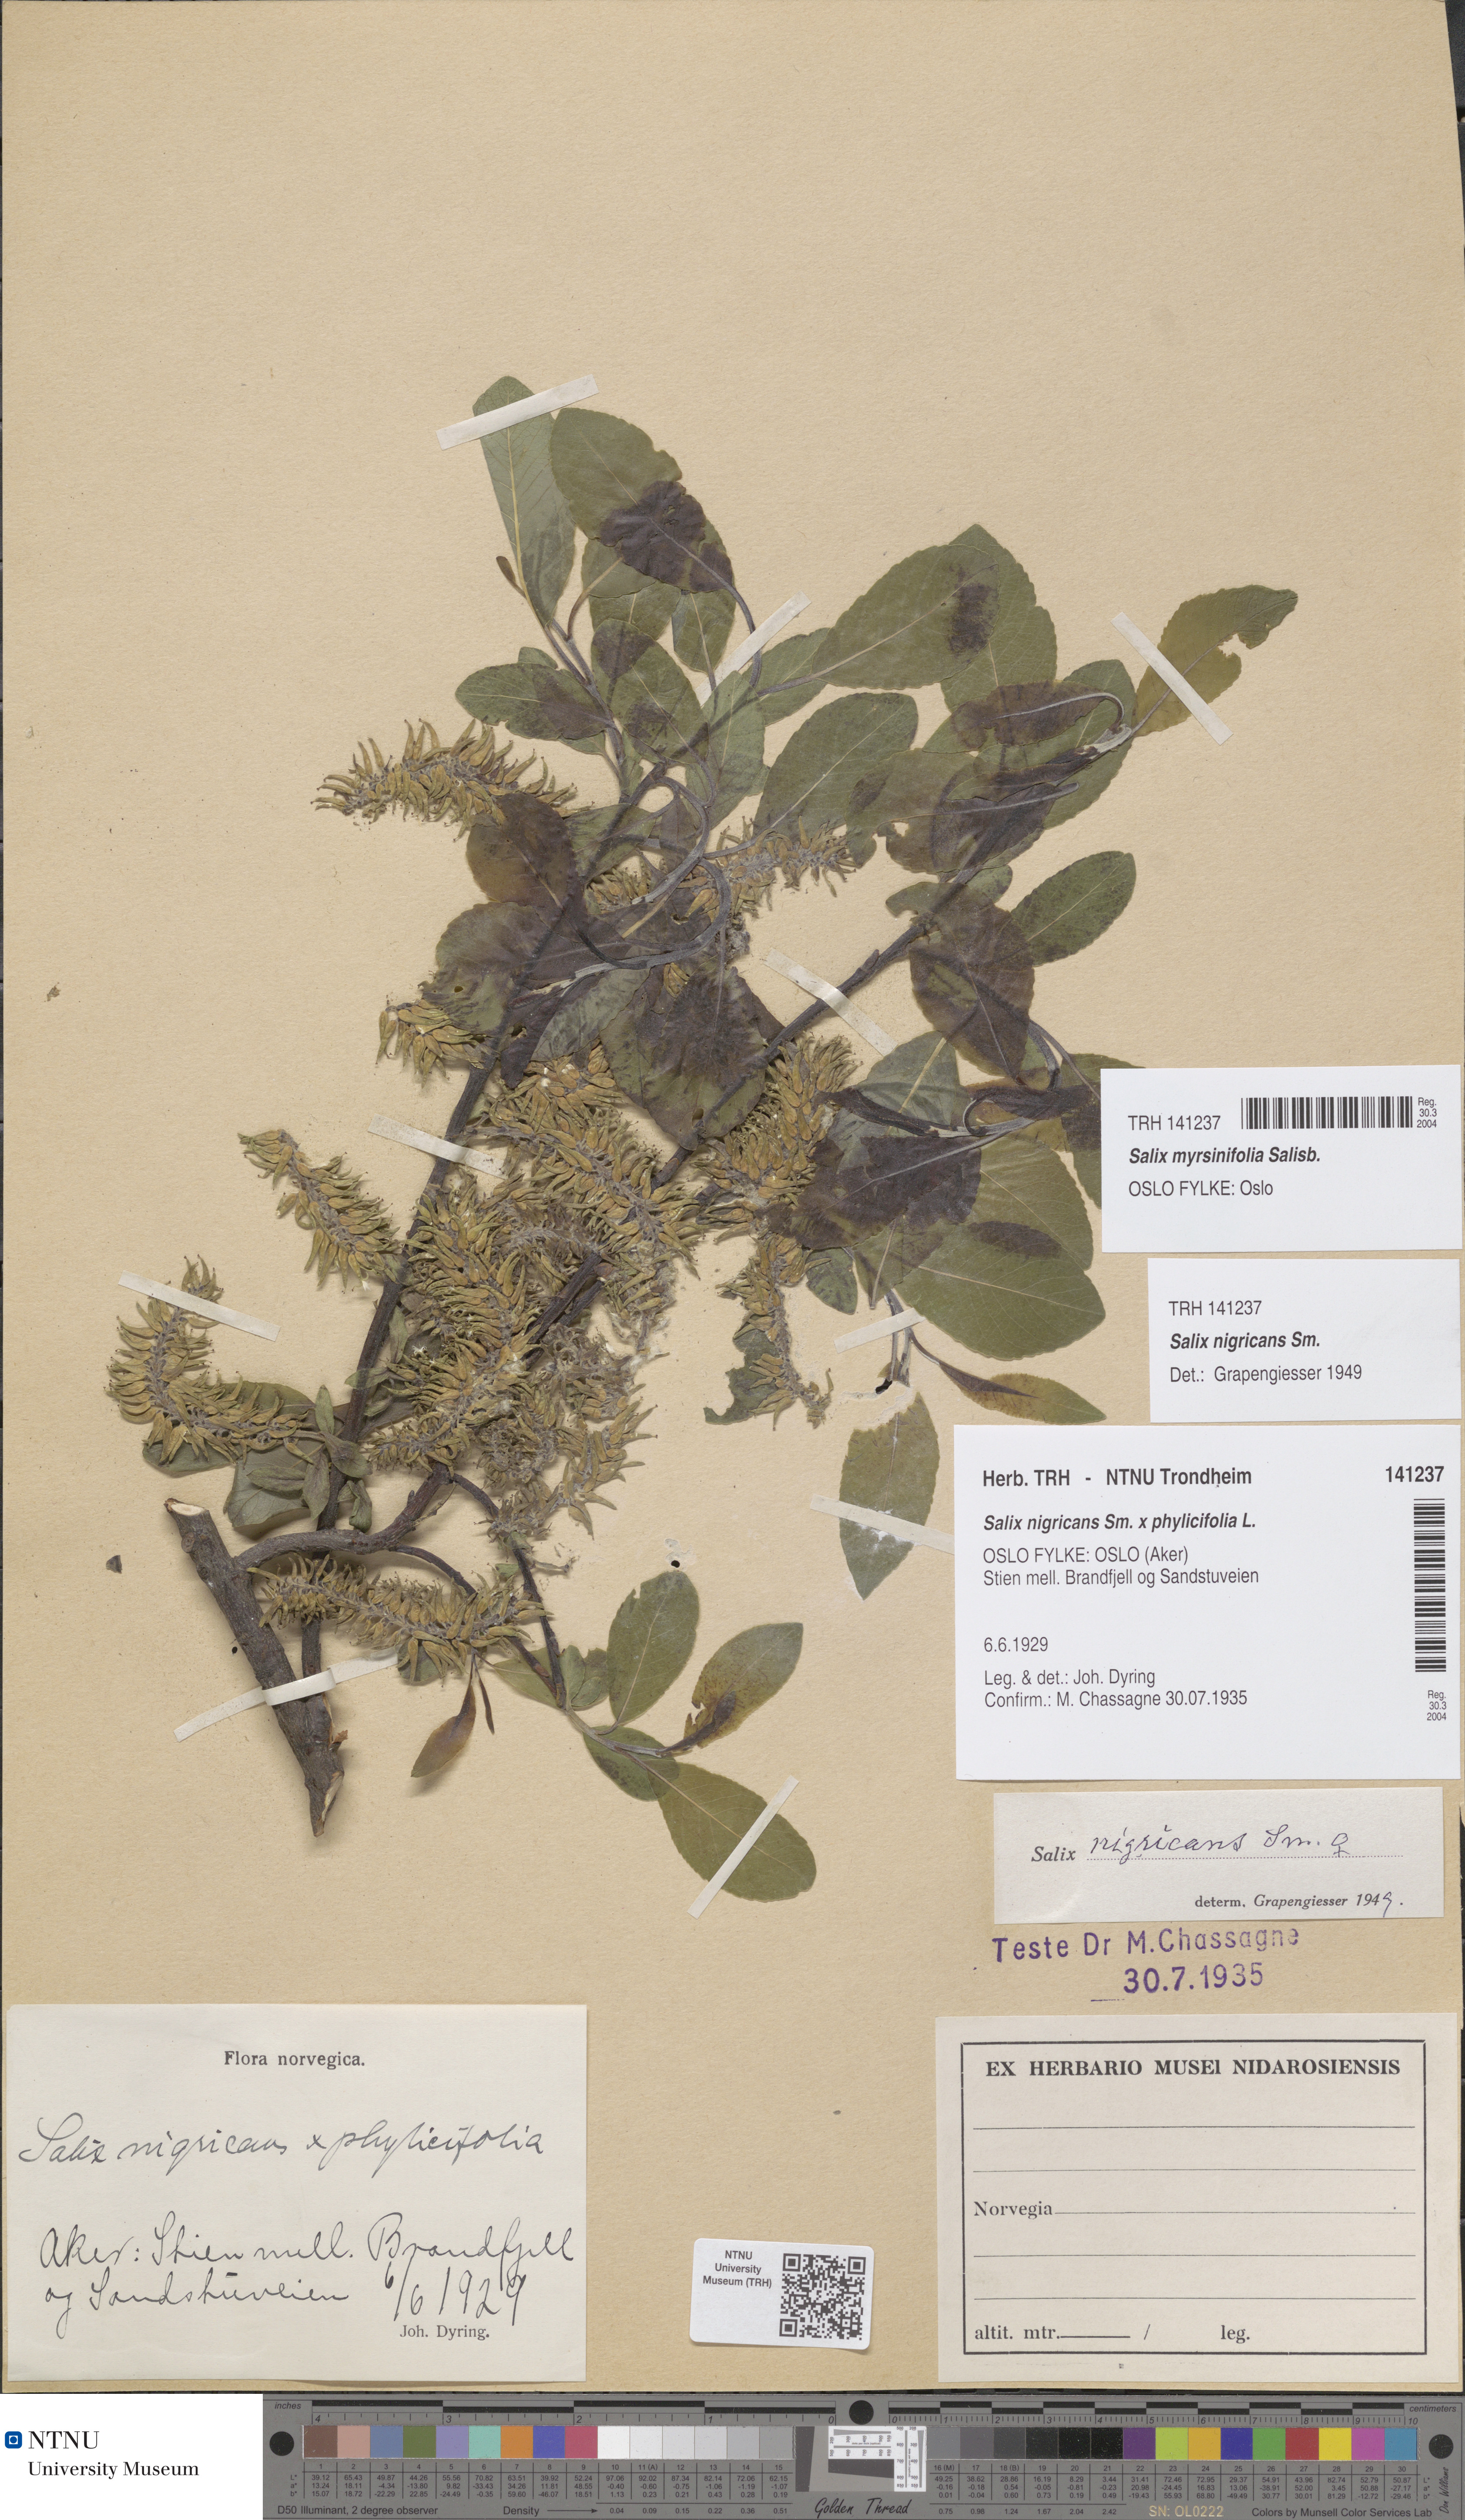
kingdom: Plantae
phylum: Tracheophyta
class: Magnoliopsida
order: Malpighiales
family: Salicaceae
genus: Salix
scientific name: Salix myrsinifolia
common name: Dark-leaved willow
